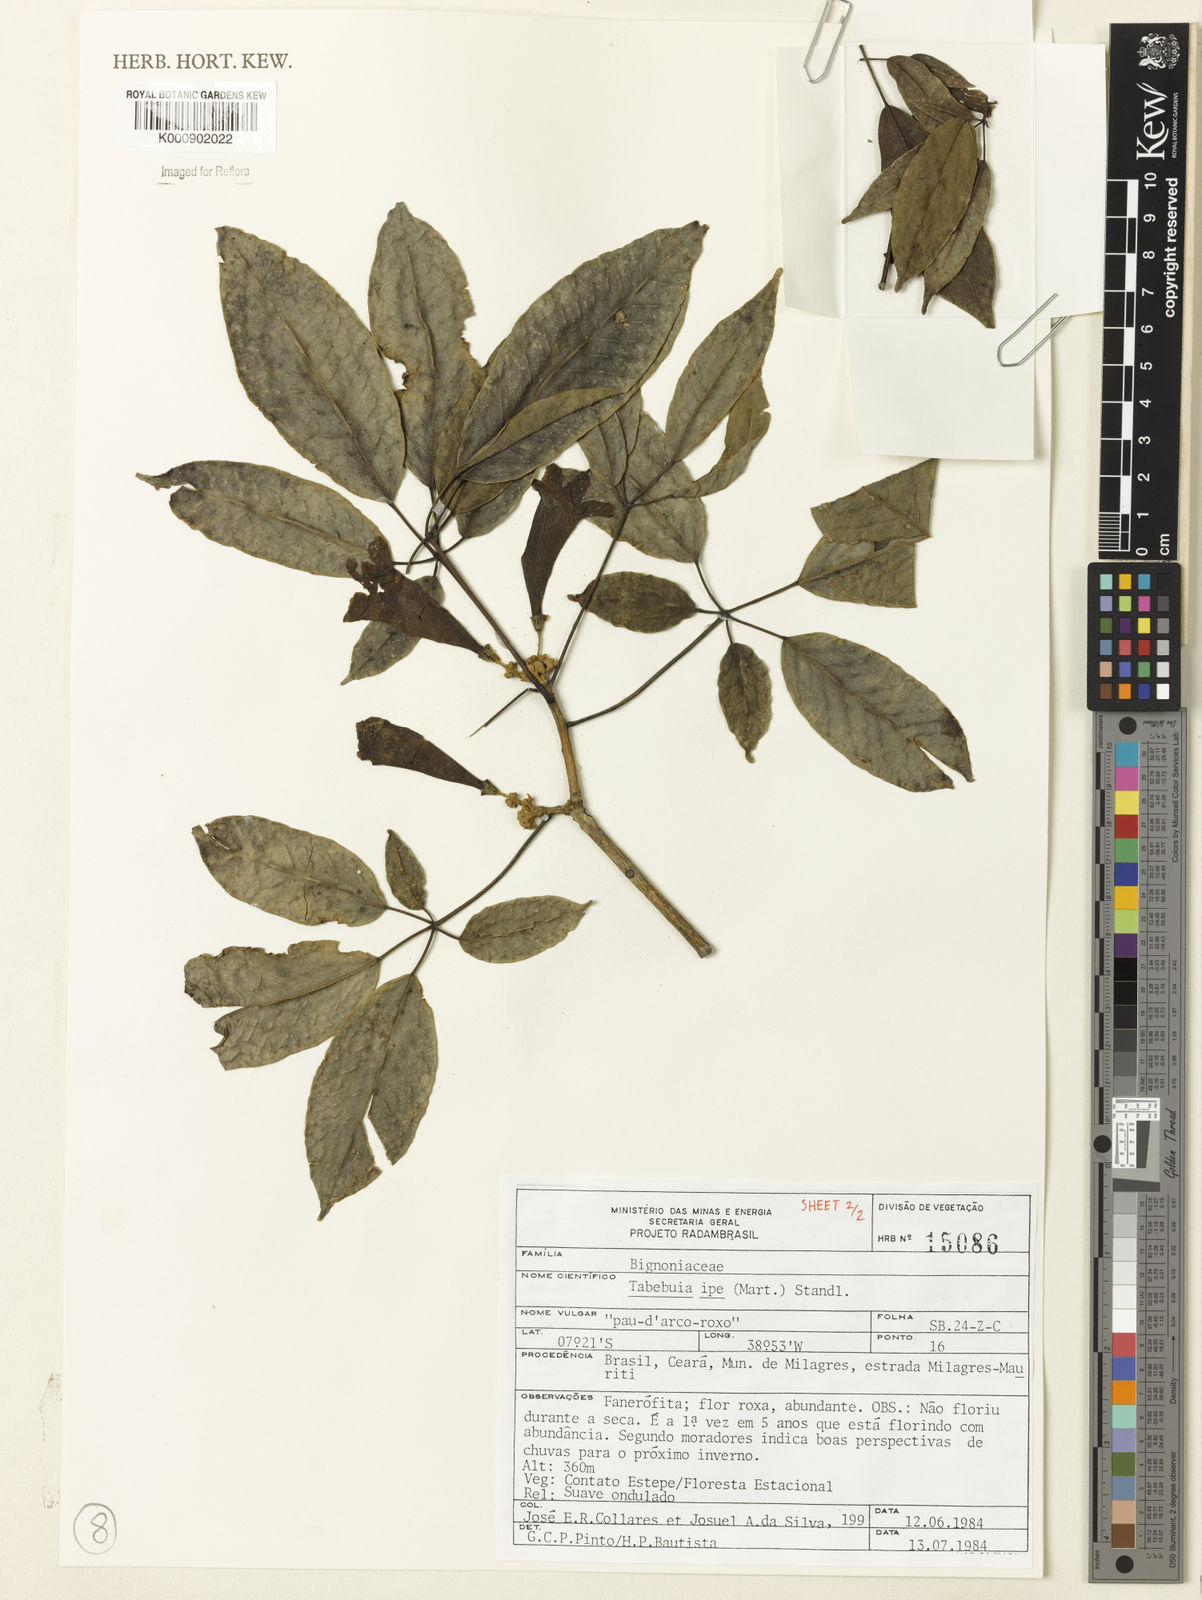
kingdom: Plantae
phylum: Tracheophyta
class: Magnoliopsida
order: Lamiales
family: Bignoniaceae
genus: Handroanthus
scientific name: Handroanthus heptaphyllus
